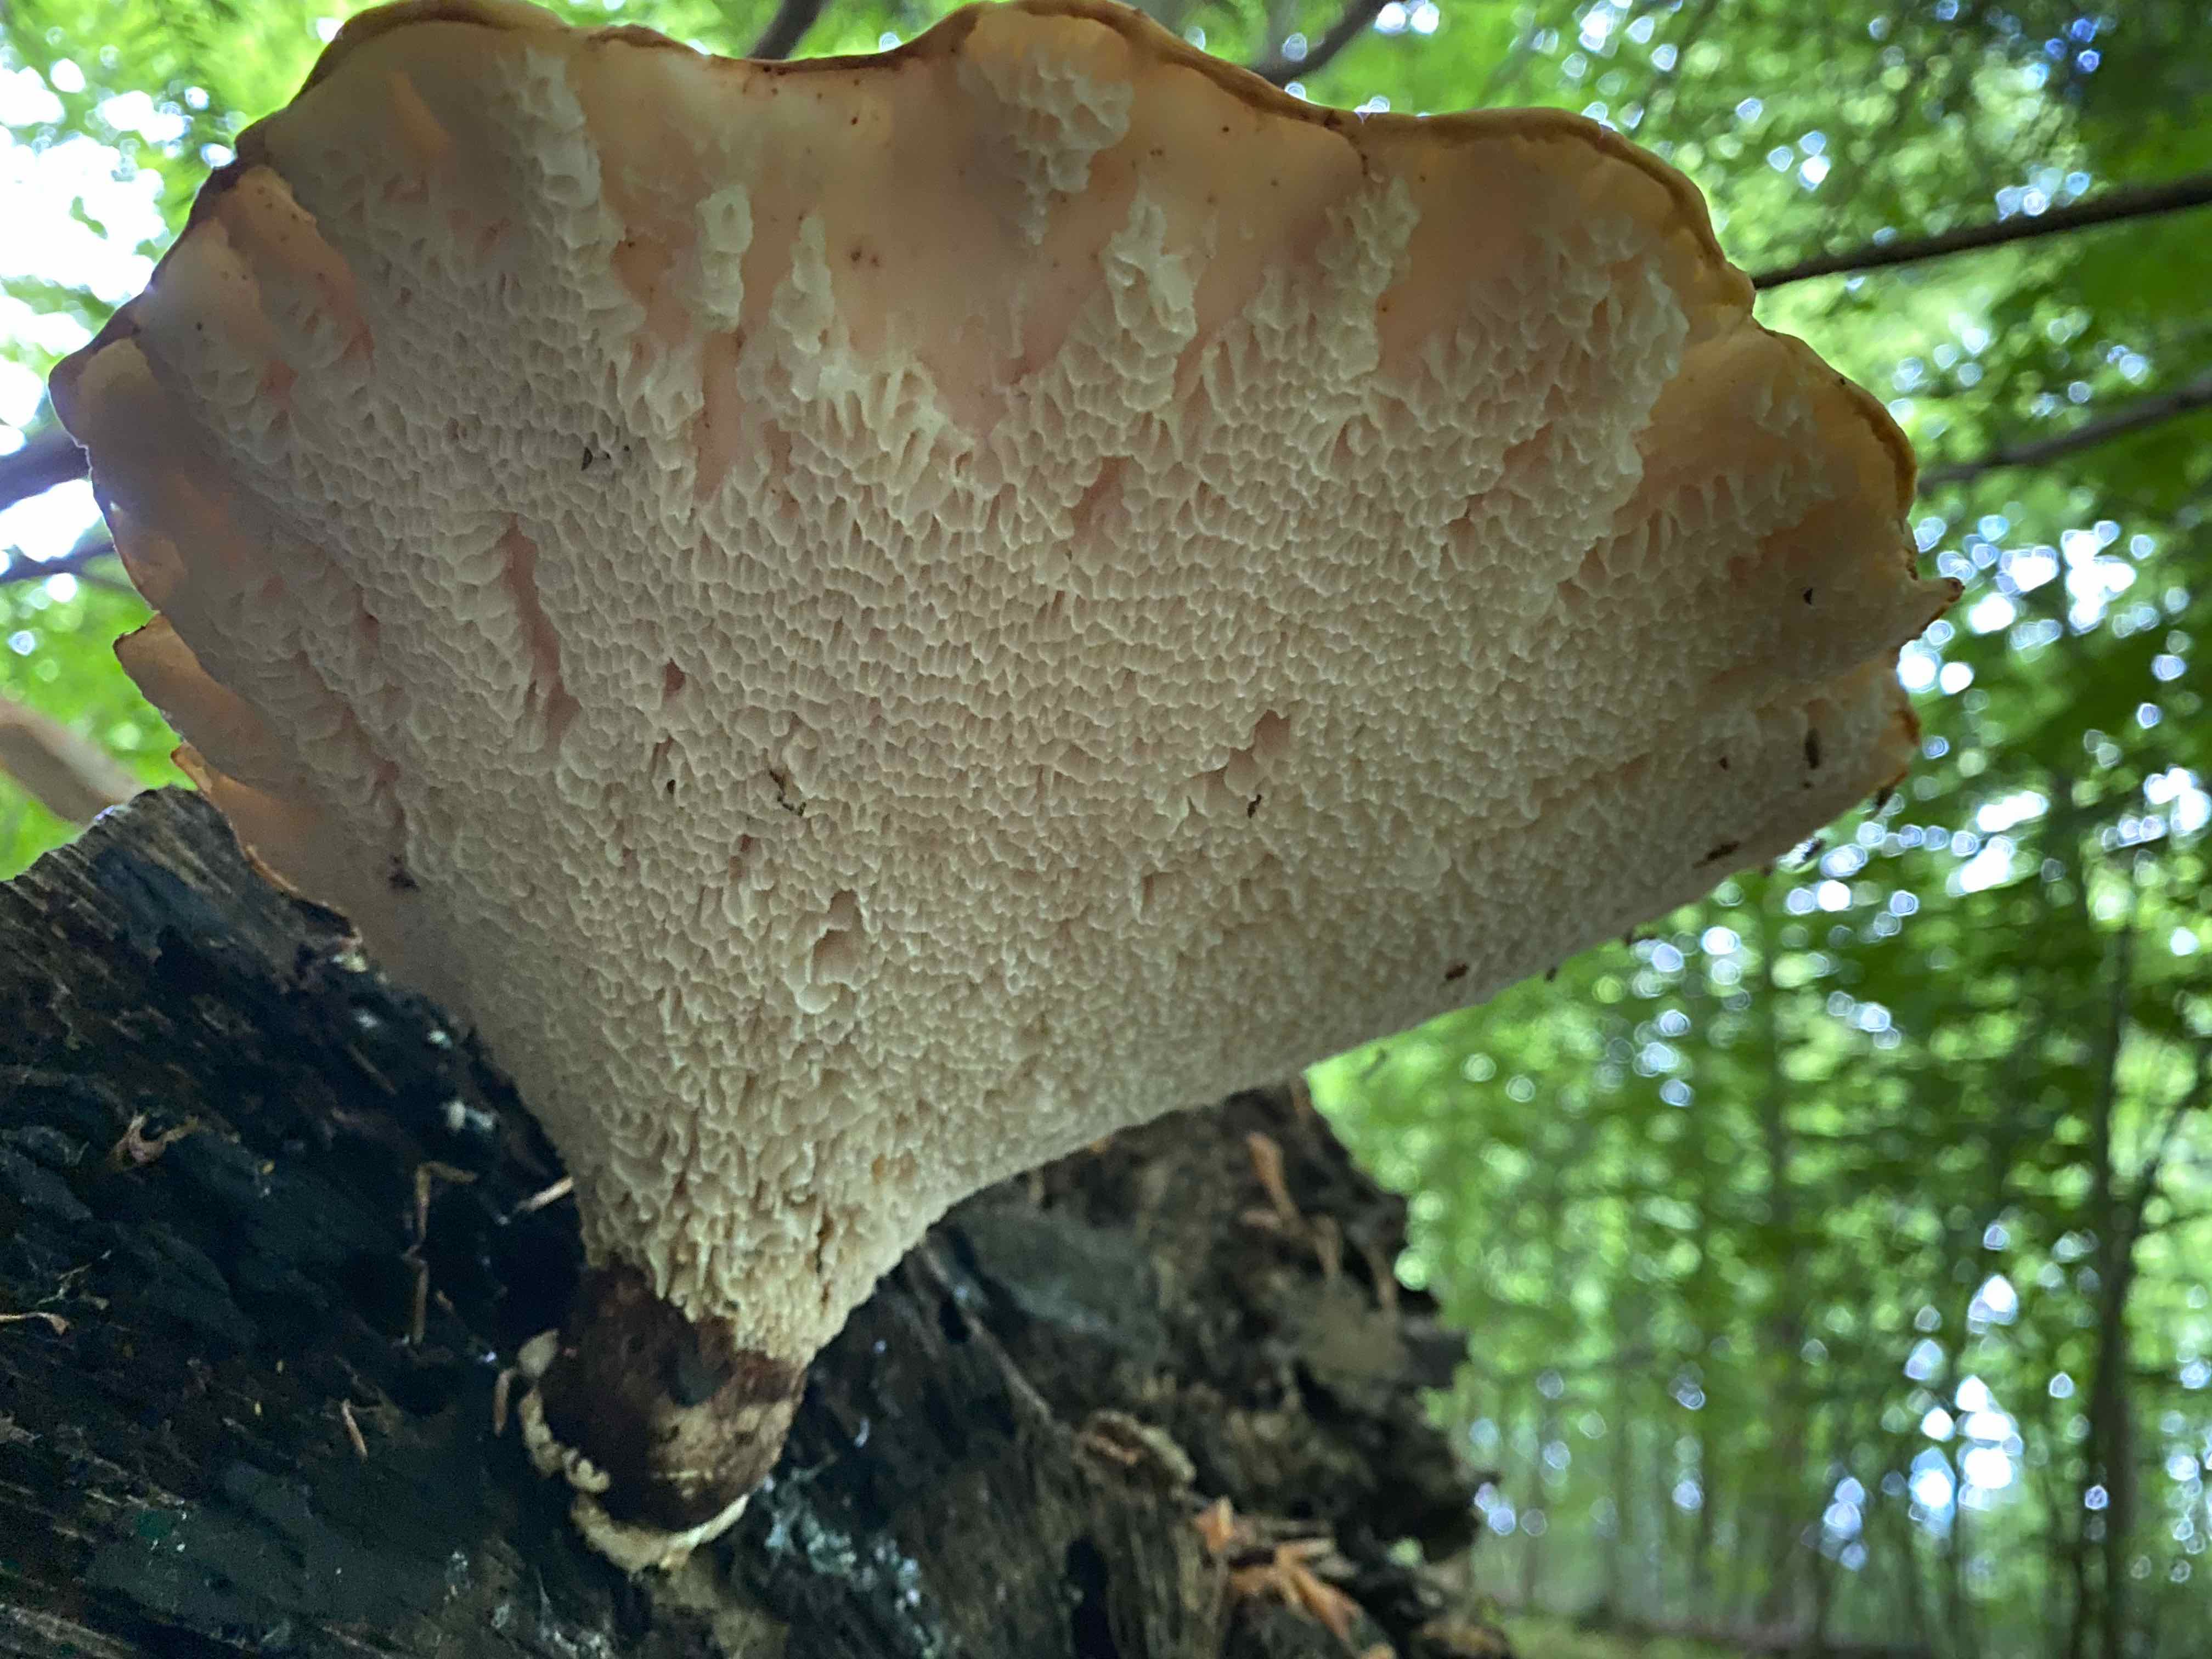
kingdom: Fungi
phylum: Basidiomycota
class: Agaricomycetes
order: Polyporales
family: Polyporaceae
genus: Cerioporus
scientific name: Cerioporus squamosus
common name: skællet stilkporesvamp
